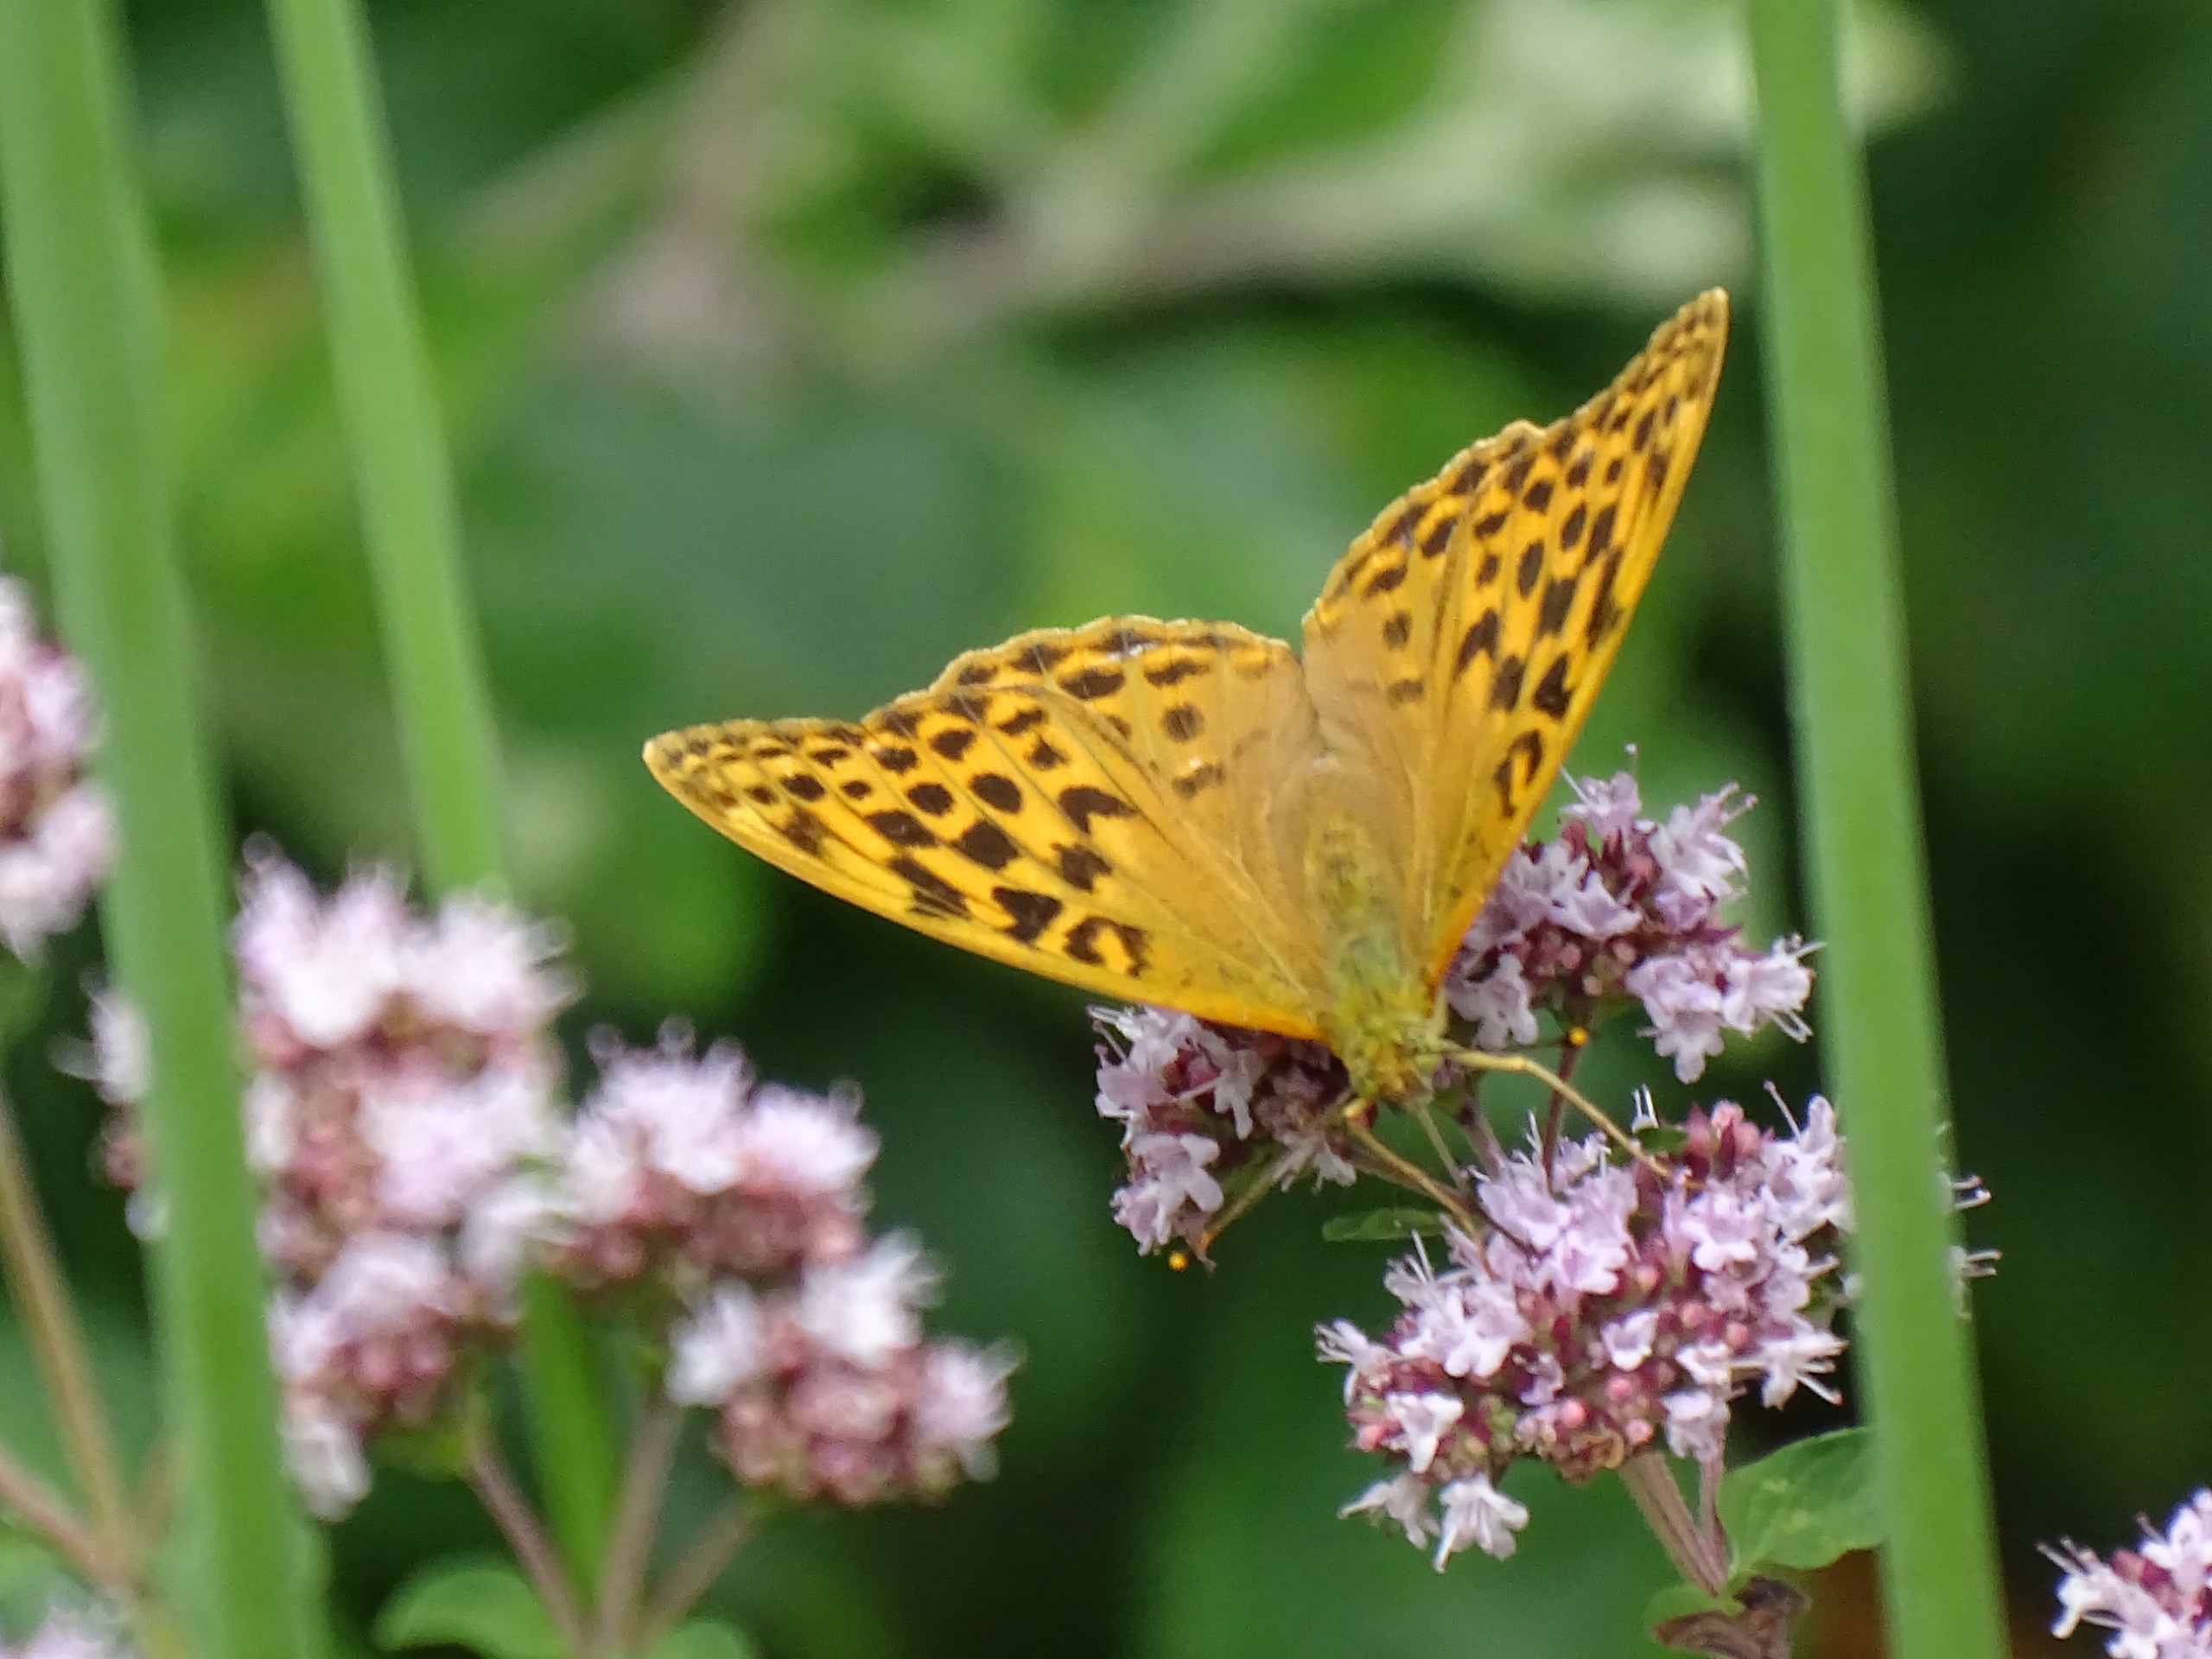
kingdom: Animalia
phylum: Arthropoda
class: Insecta
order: Lepidoptera
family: Nymphalidae
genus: Argynnis
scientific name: Argynnis paphia
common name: Kejserkåbe
